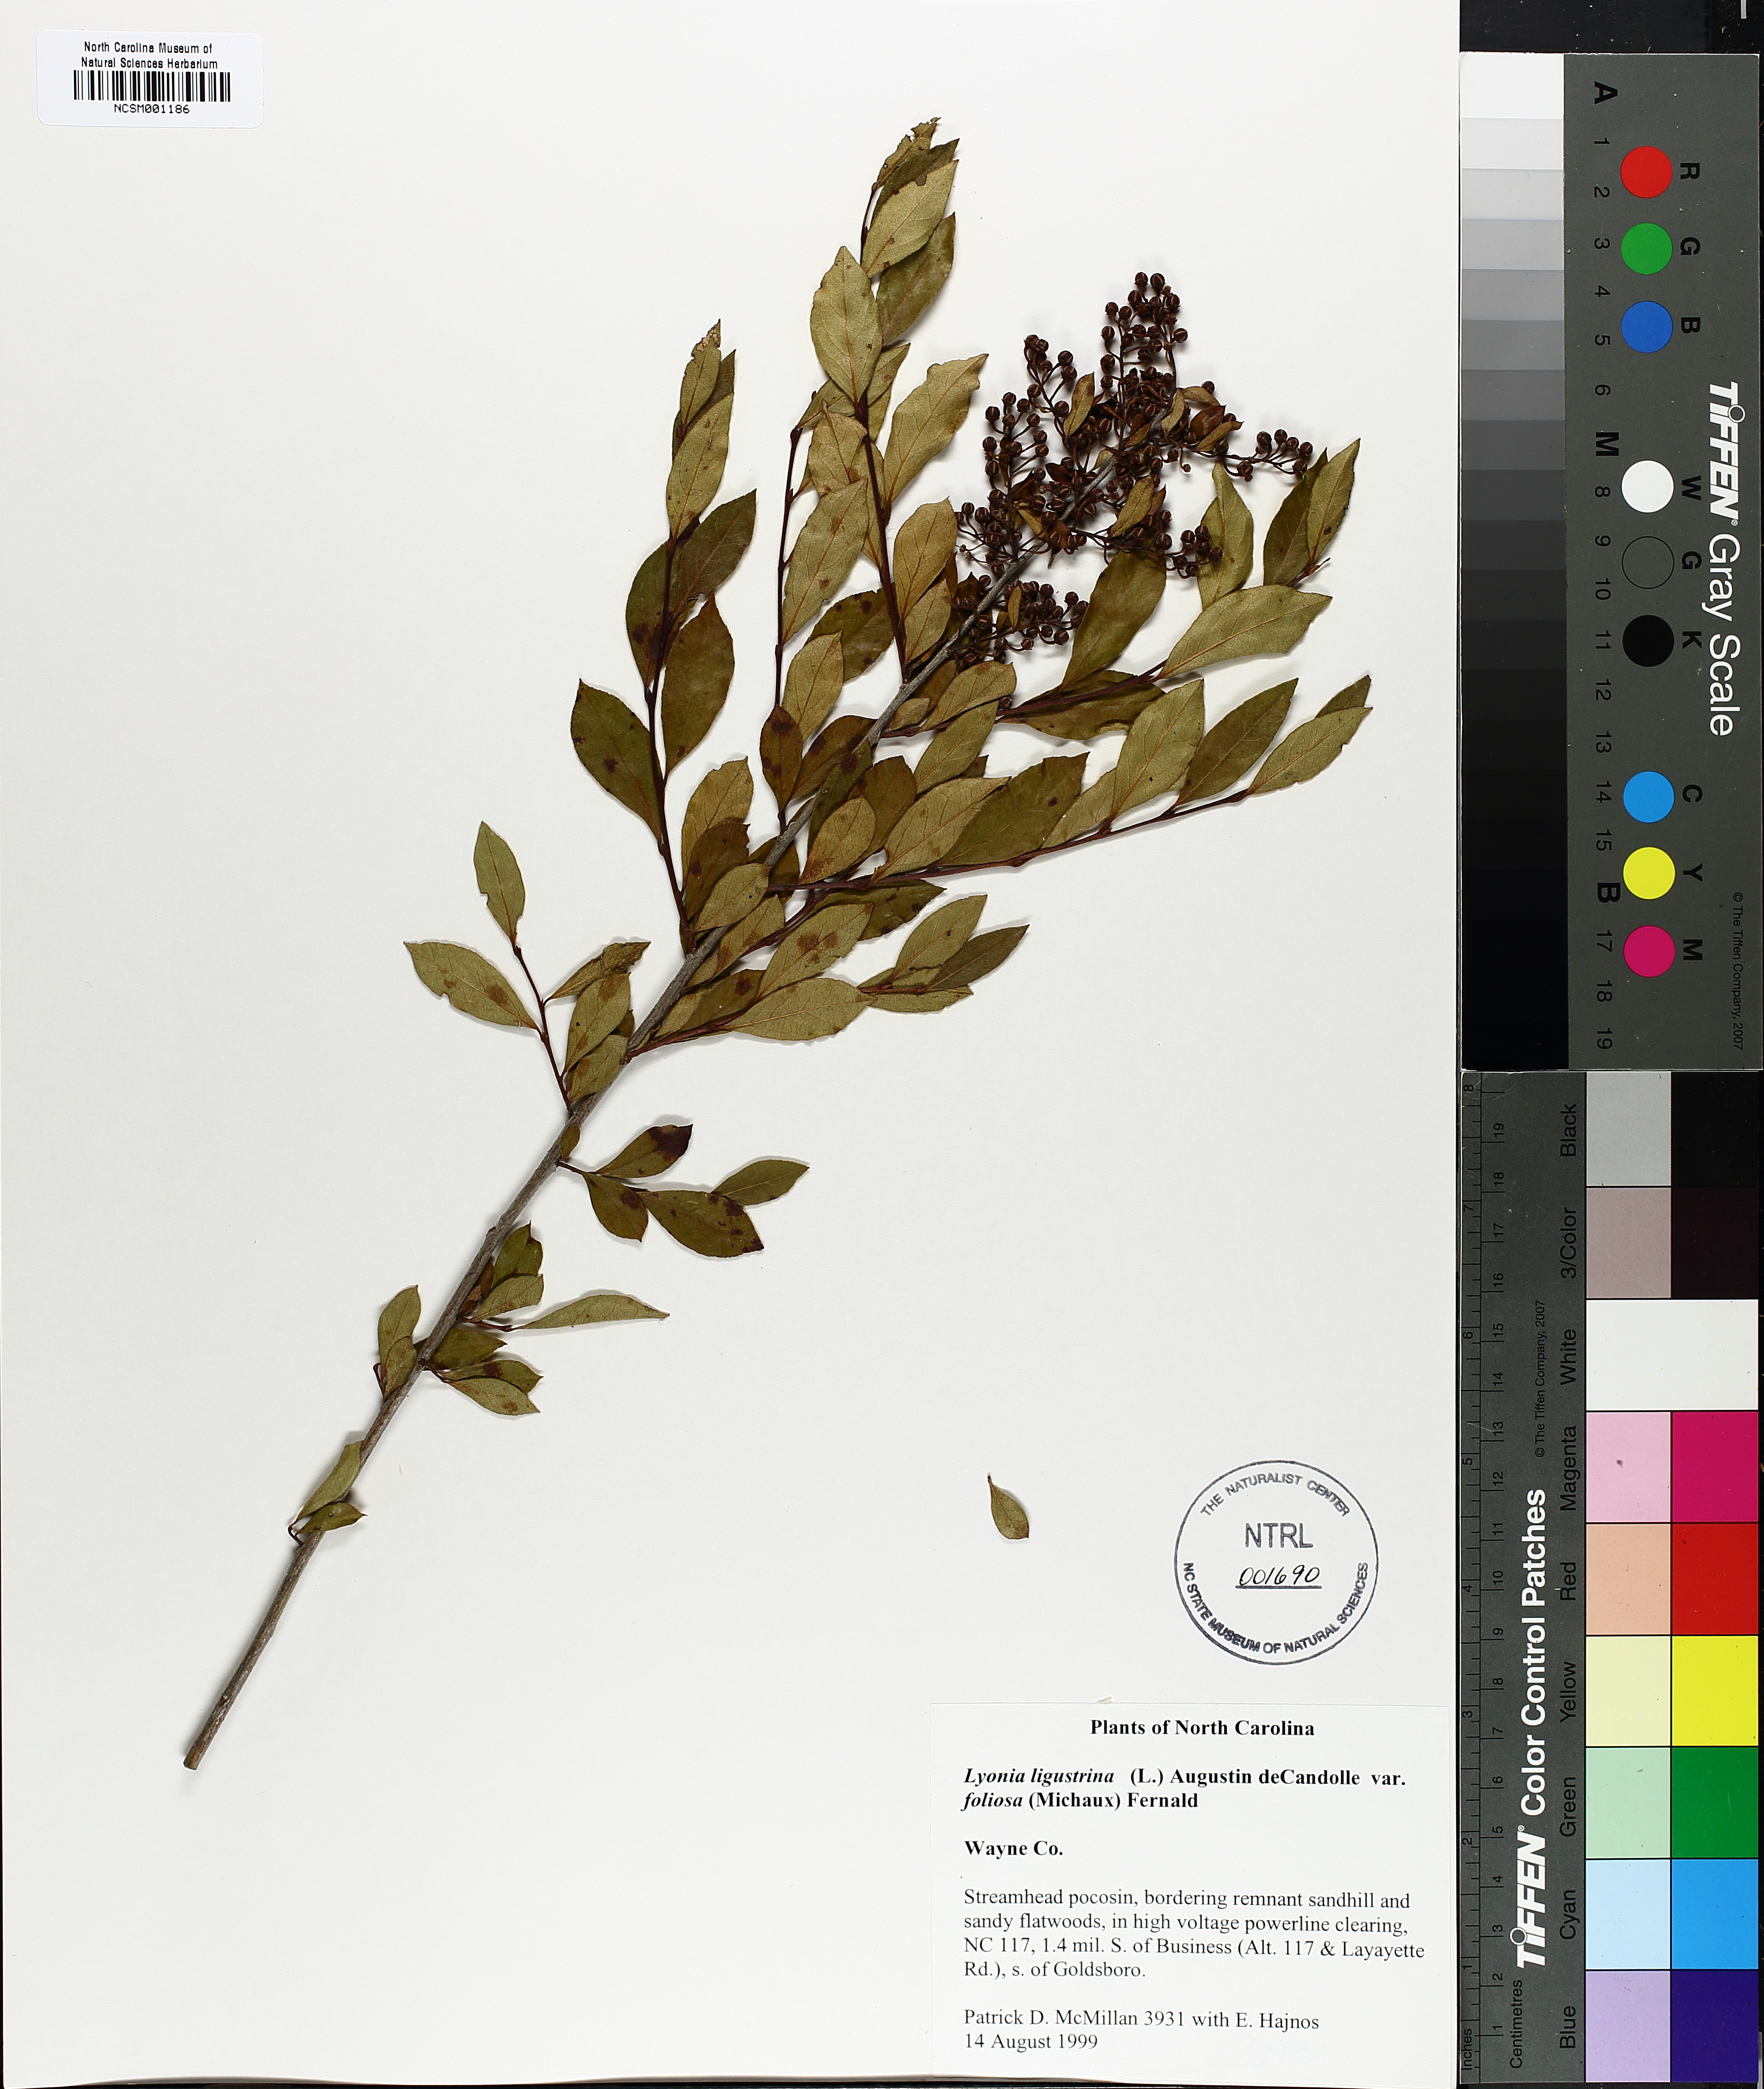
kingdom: Plantae
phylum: Tracheophyta
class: Magnoliopsida
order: Ericales
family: Ericaceae
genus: Lyonia
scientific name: Lyonia ligustrina
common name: Maleberry
